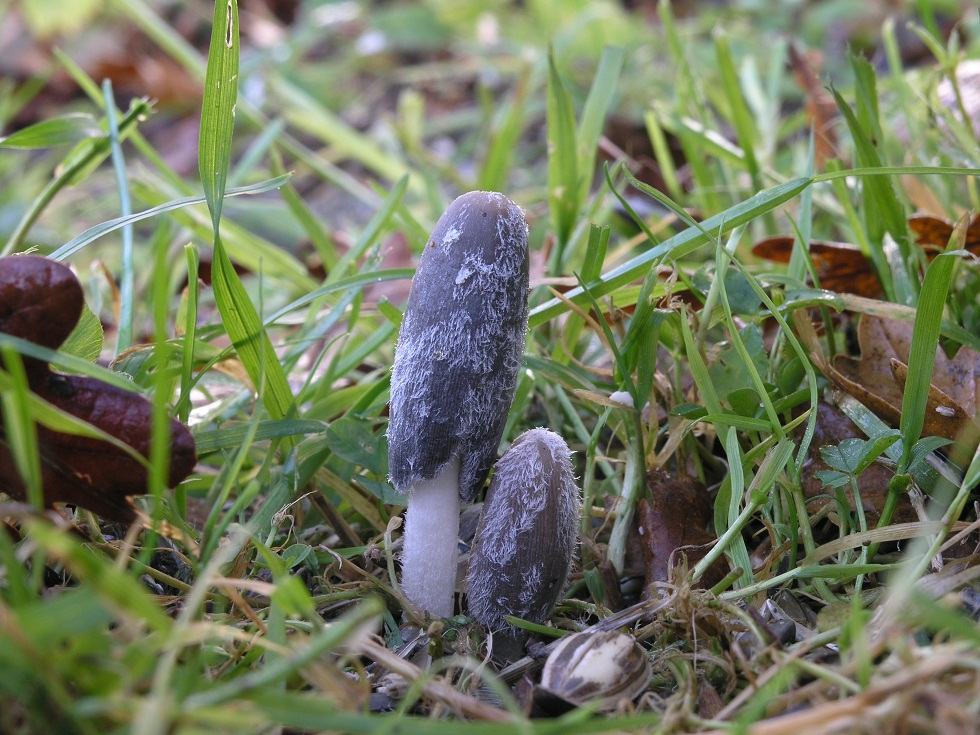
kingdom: Fungi
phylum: Basidiomycota
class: Agaricomycetes
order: Agaricales
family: Psathyrellaceae
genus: Coprinopsis
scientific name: Coprinopsis lagopus
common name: dunstokket blækhat
